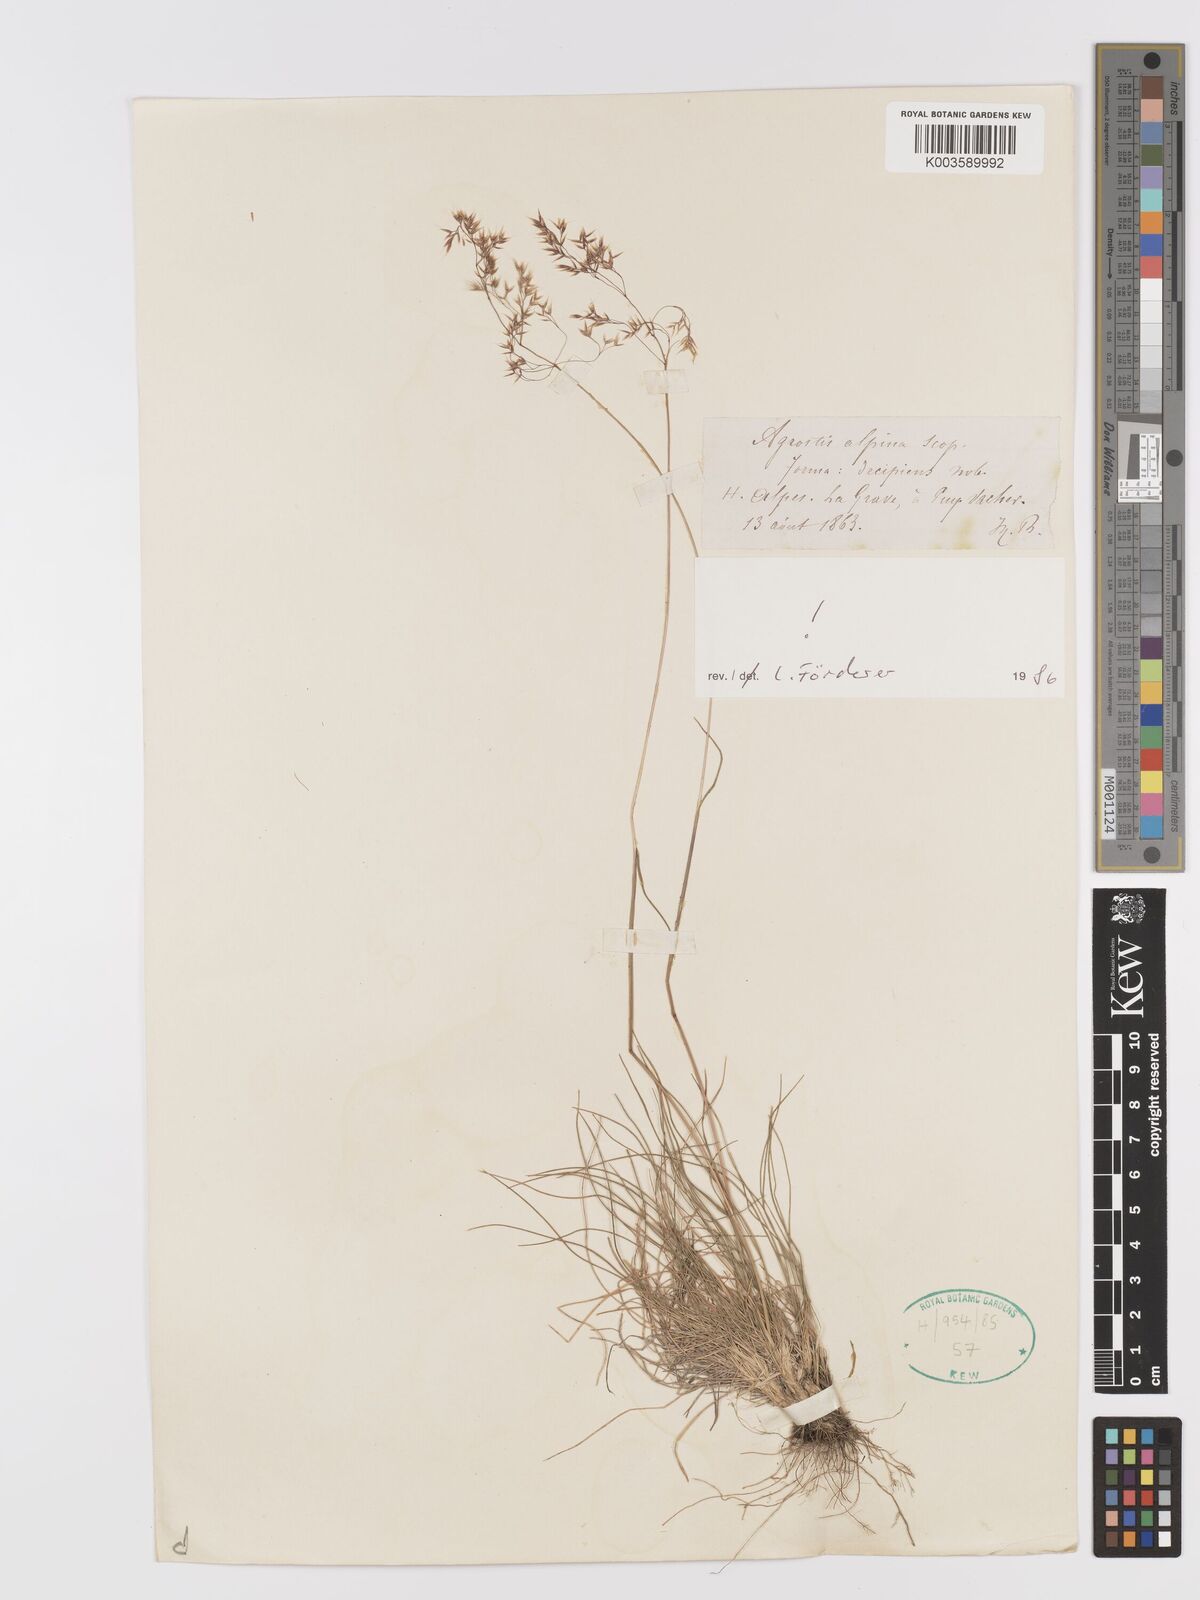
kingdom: Plantae
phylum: Tracheophyta
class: Liliopsida
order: Poales
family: Poaceae
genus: Alpagrostis
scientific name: Alpagrostis alpina
